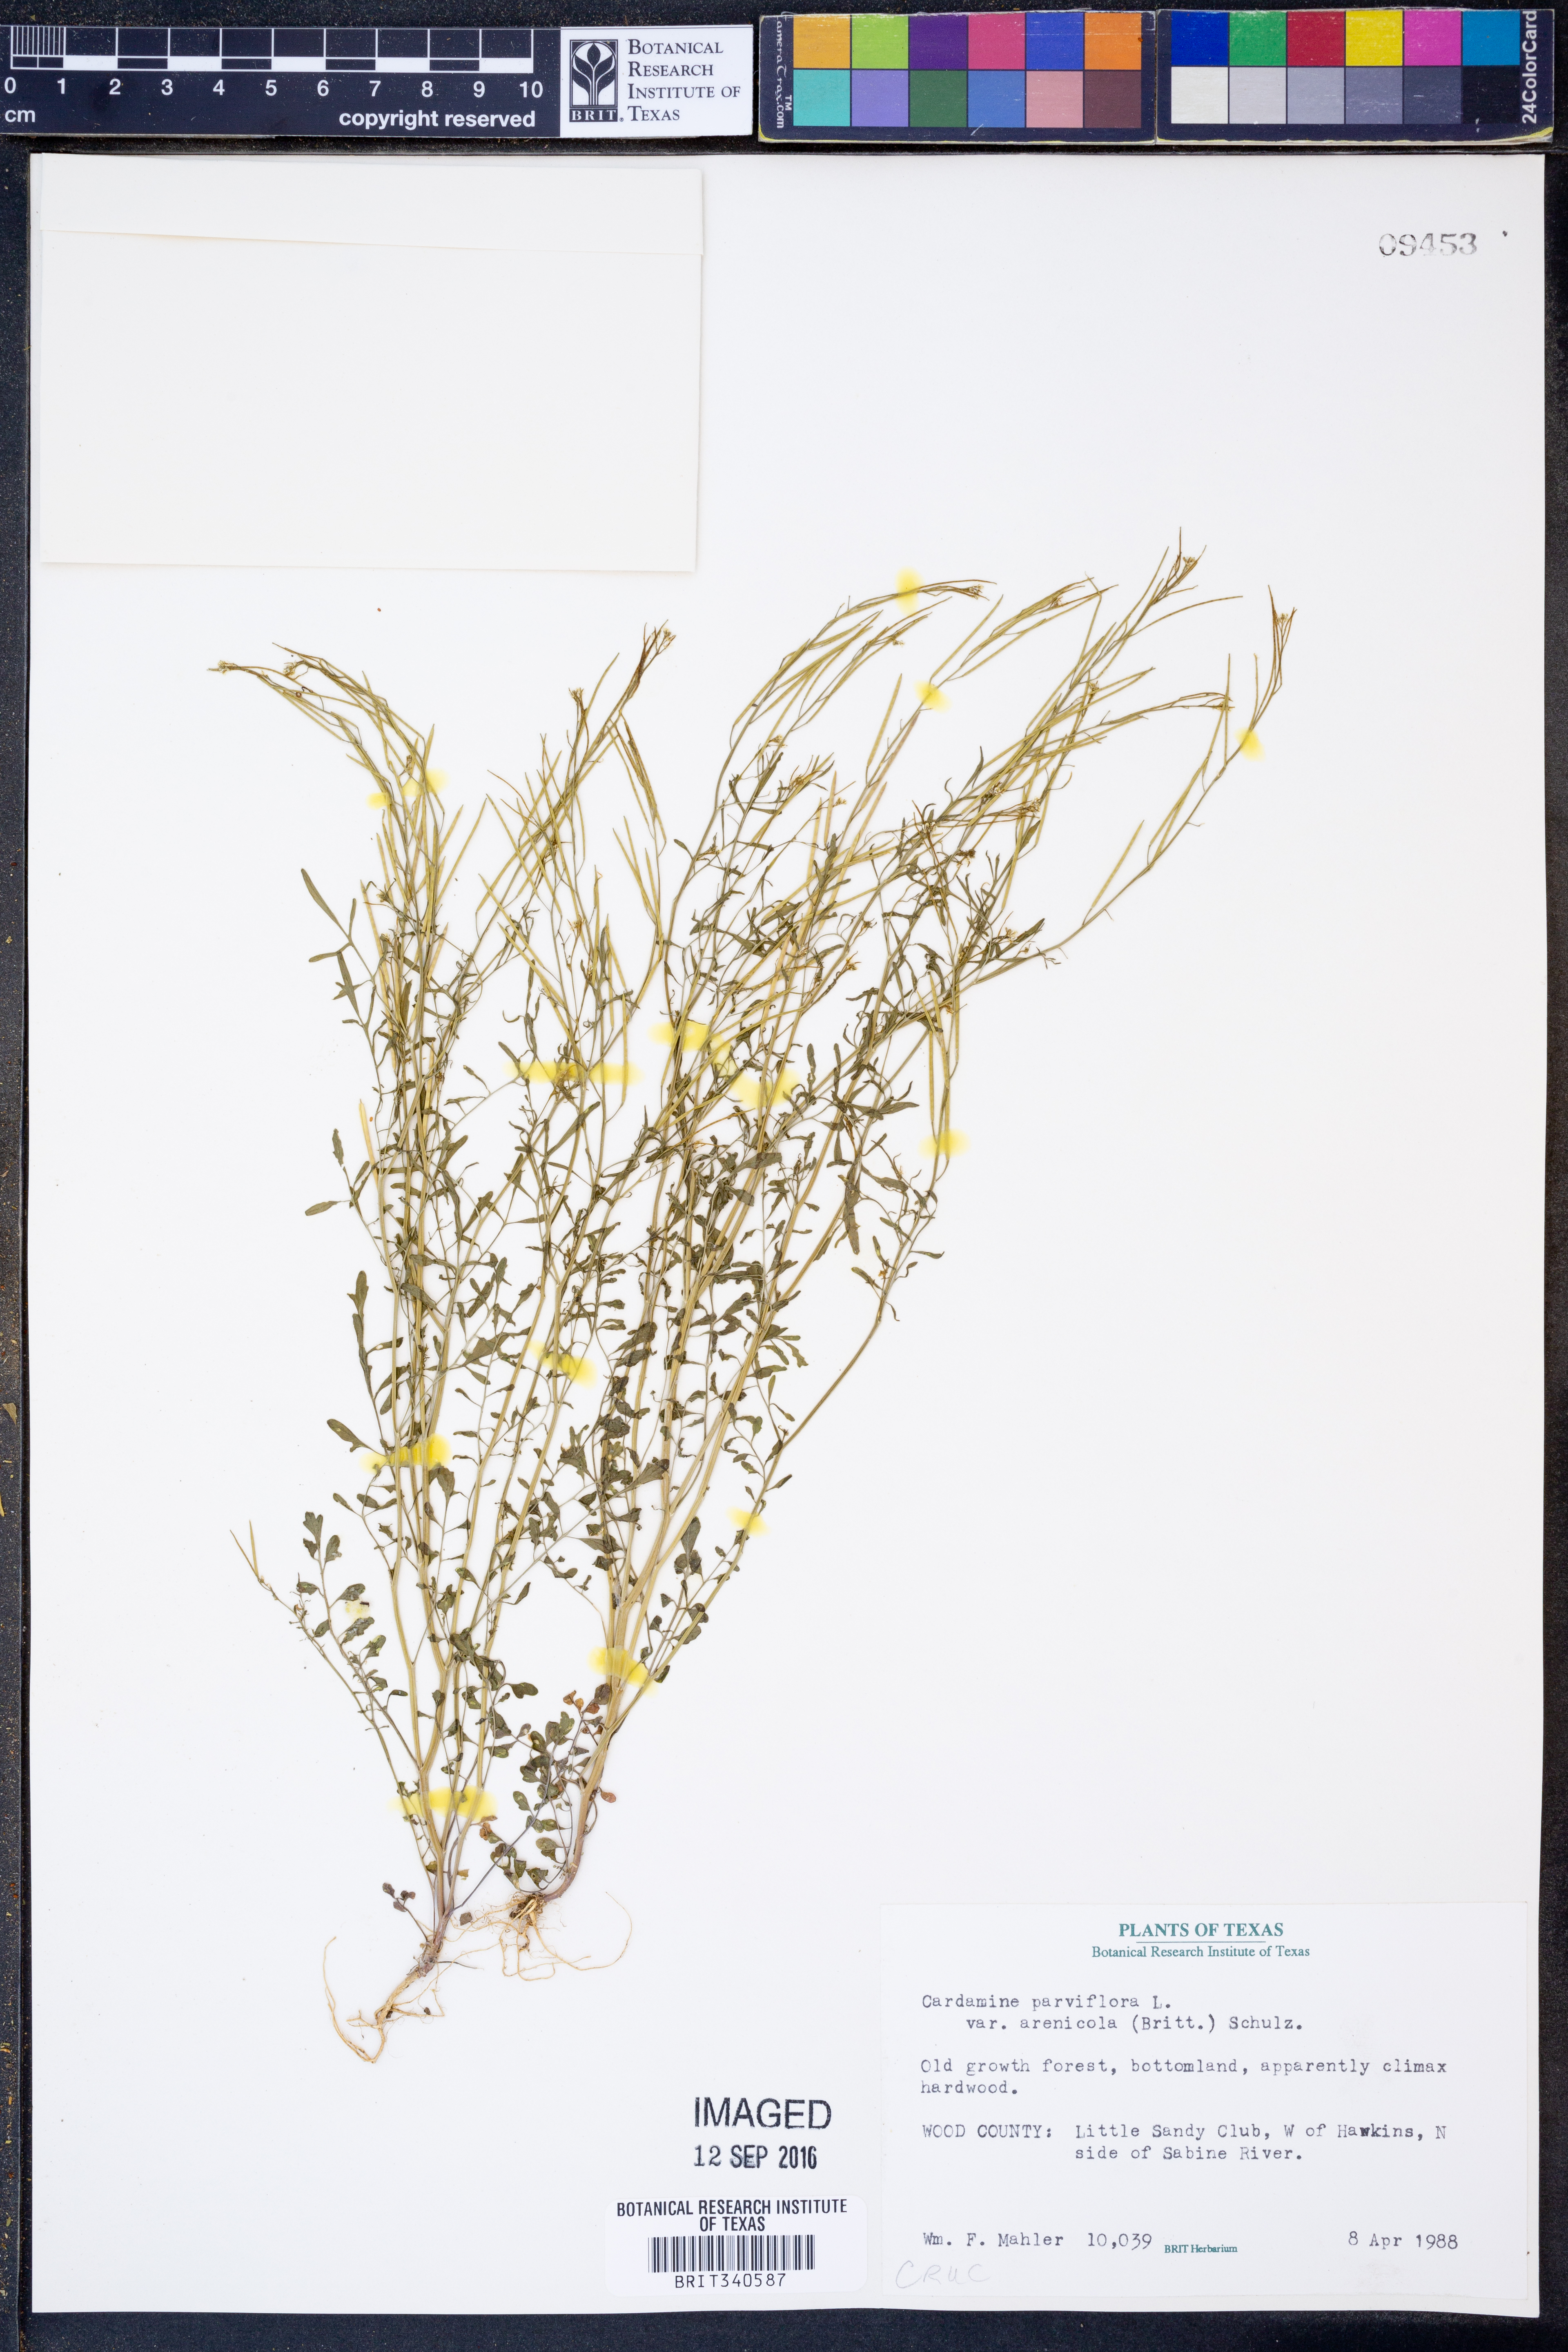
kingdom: Plantae
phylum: Tracheophyta
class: Magnoliopsida
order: Brassicales
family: Brassicaceae
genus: Cardamine
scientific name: Cardamine parviflora
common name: Sand bittercress
